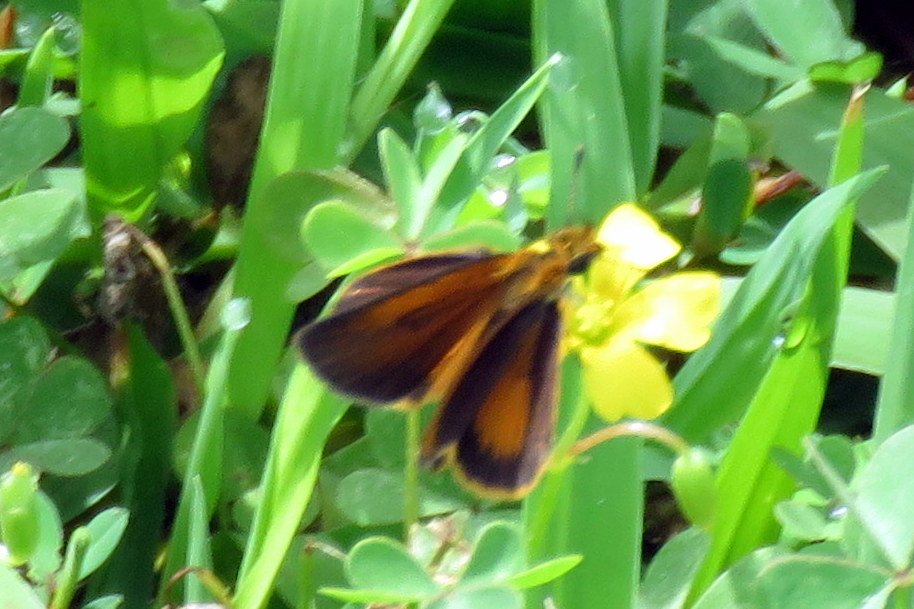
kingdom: Animalia
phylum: Arthropoda
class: Insecta
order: Lepidoptera
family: Hesperiidae
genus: Ancyloxypha
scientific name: Ancyloxypha numitor
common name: Least Skipper
